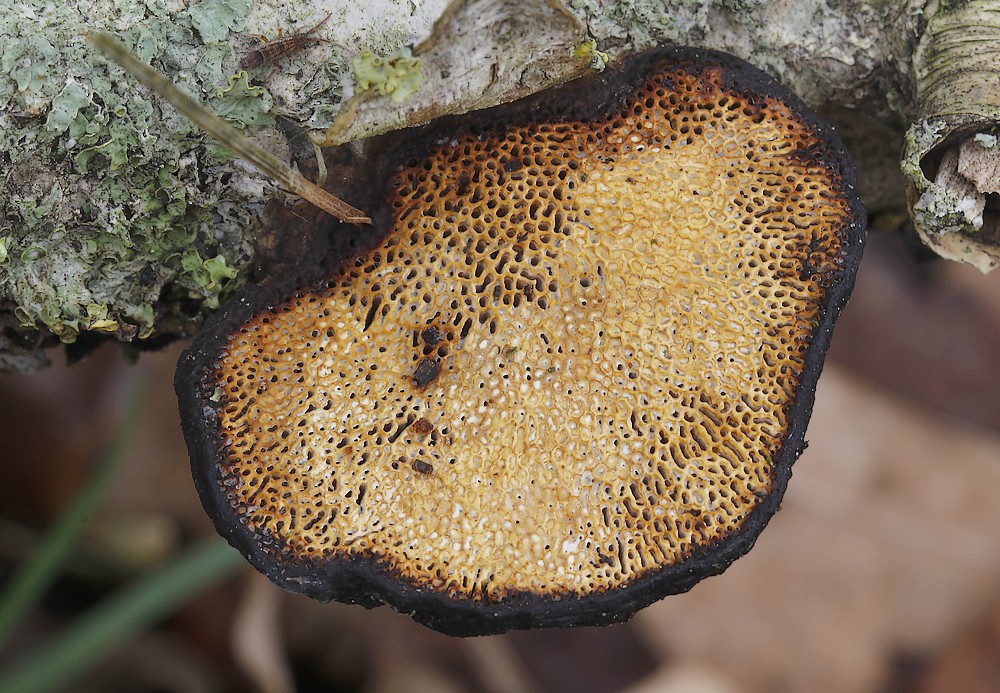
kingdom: Fungi
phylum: Basidiomycota
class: Agaricomycetes
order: Polyporales
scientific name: Polyporales
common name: poresvampordenen
